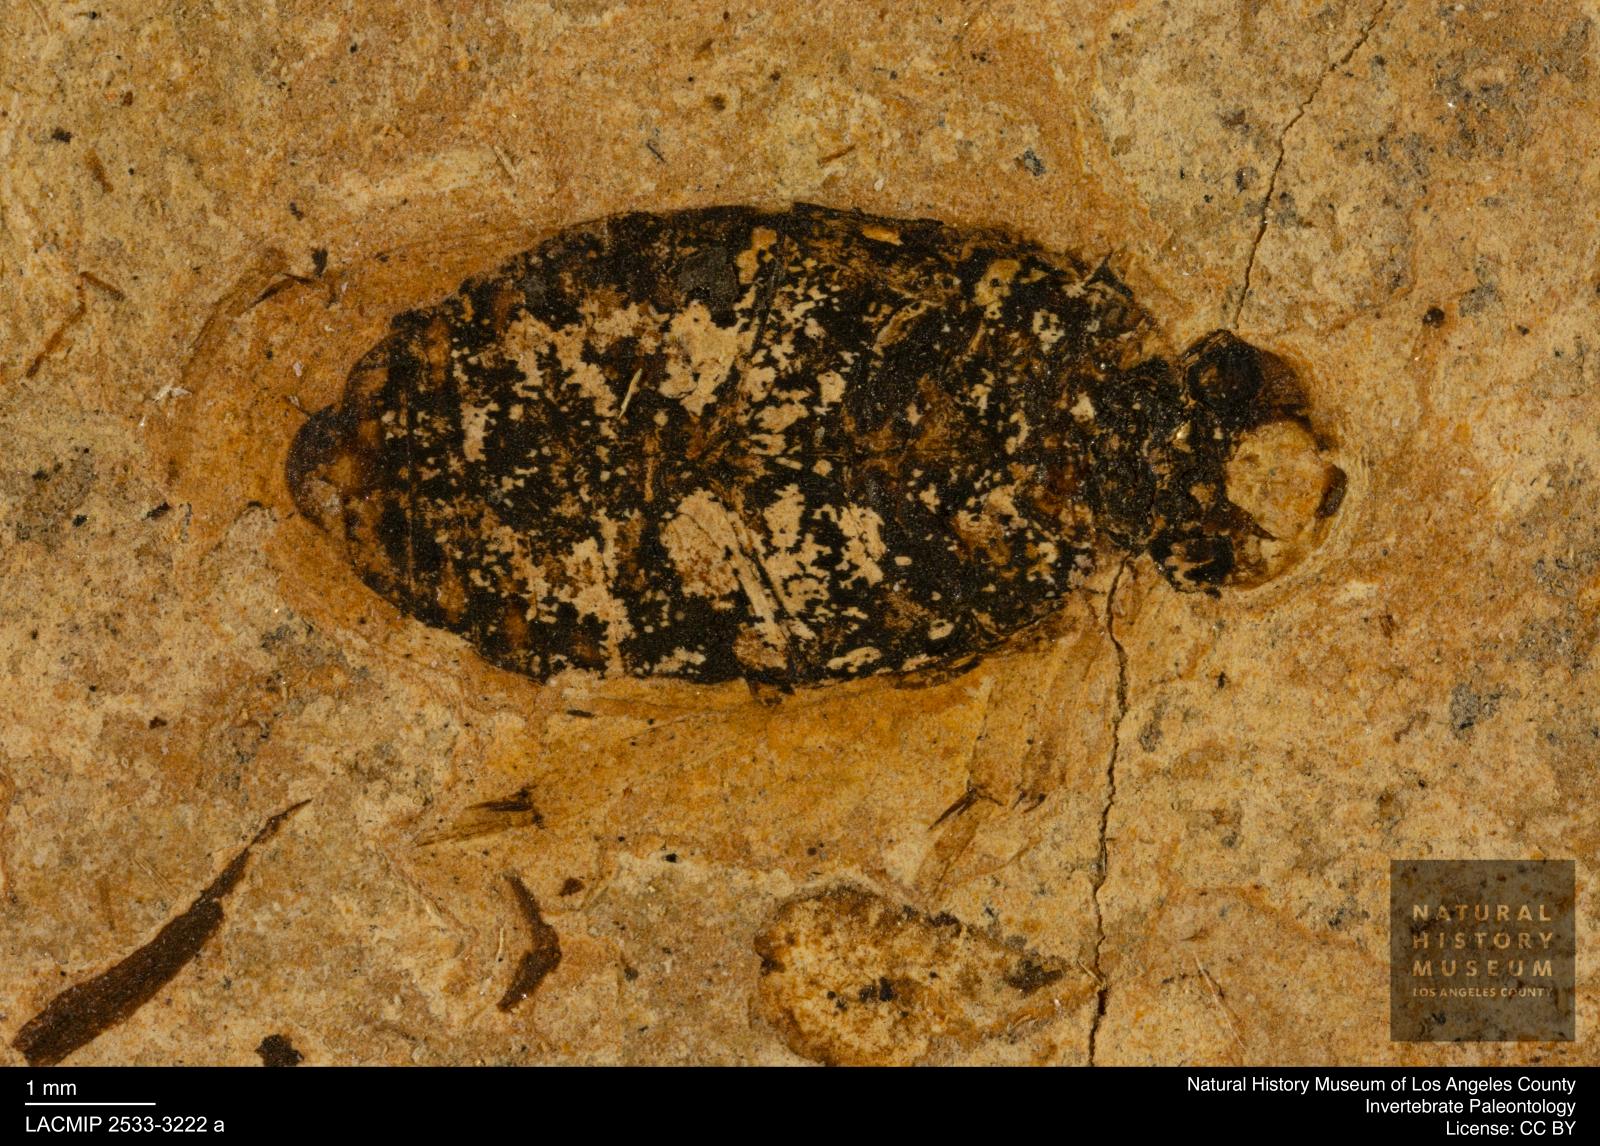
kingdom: Animalia
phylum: Arthropoda
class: Insecta
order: Coleoptera
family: Hydrophilidae
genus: Berosus
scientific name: Berosus morticinus
